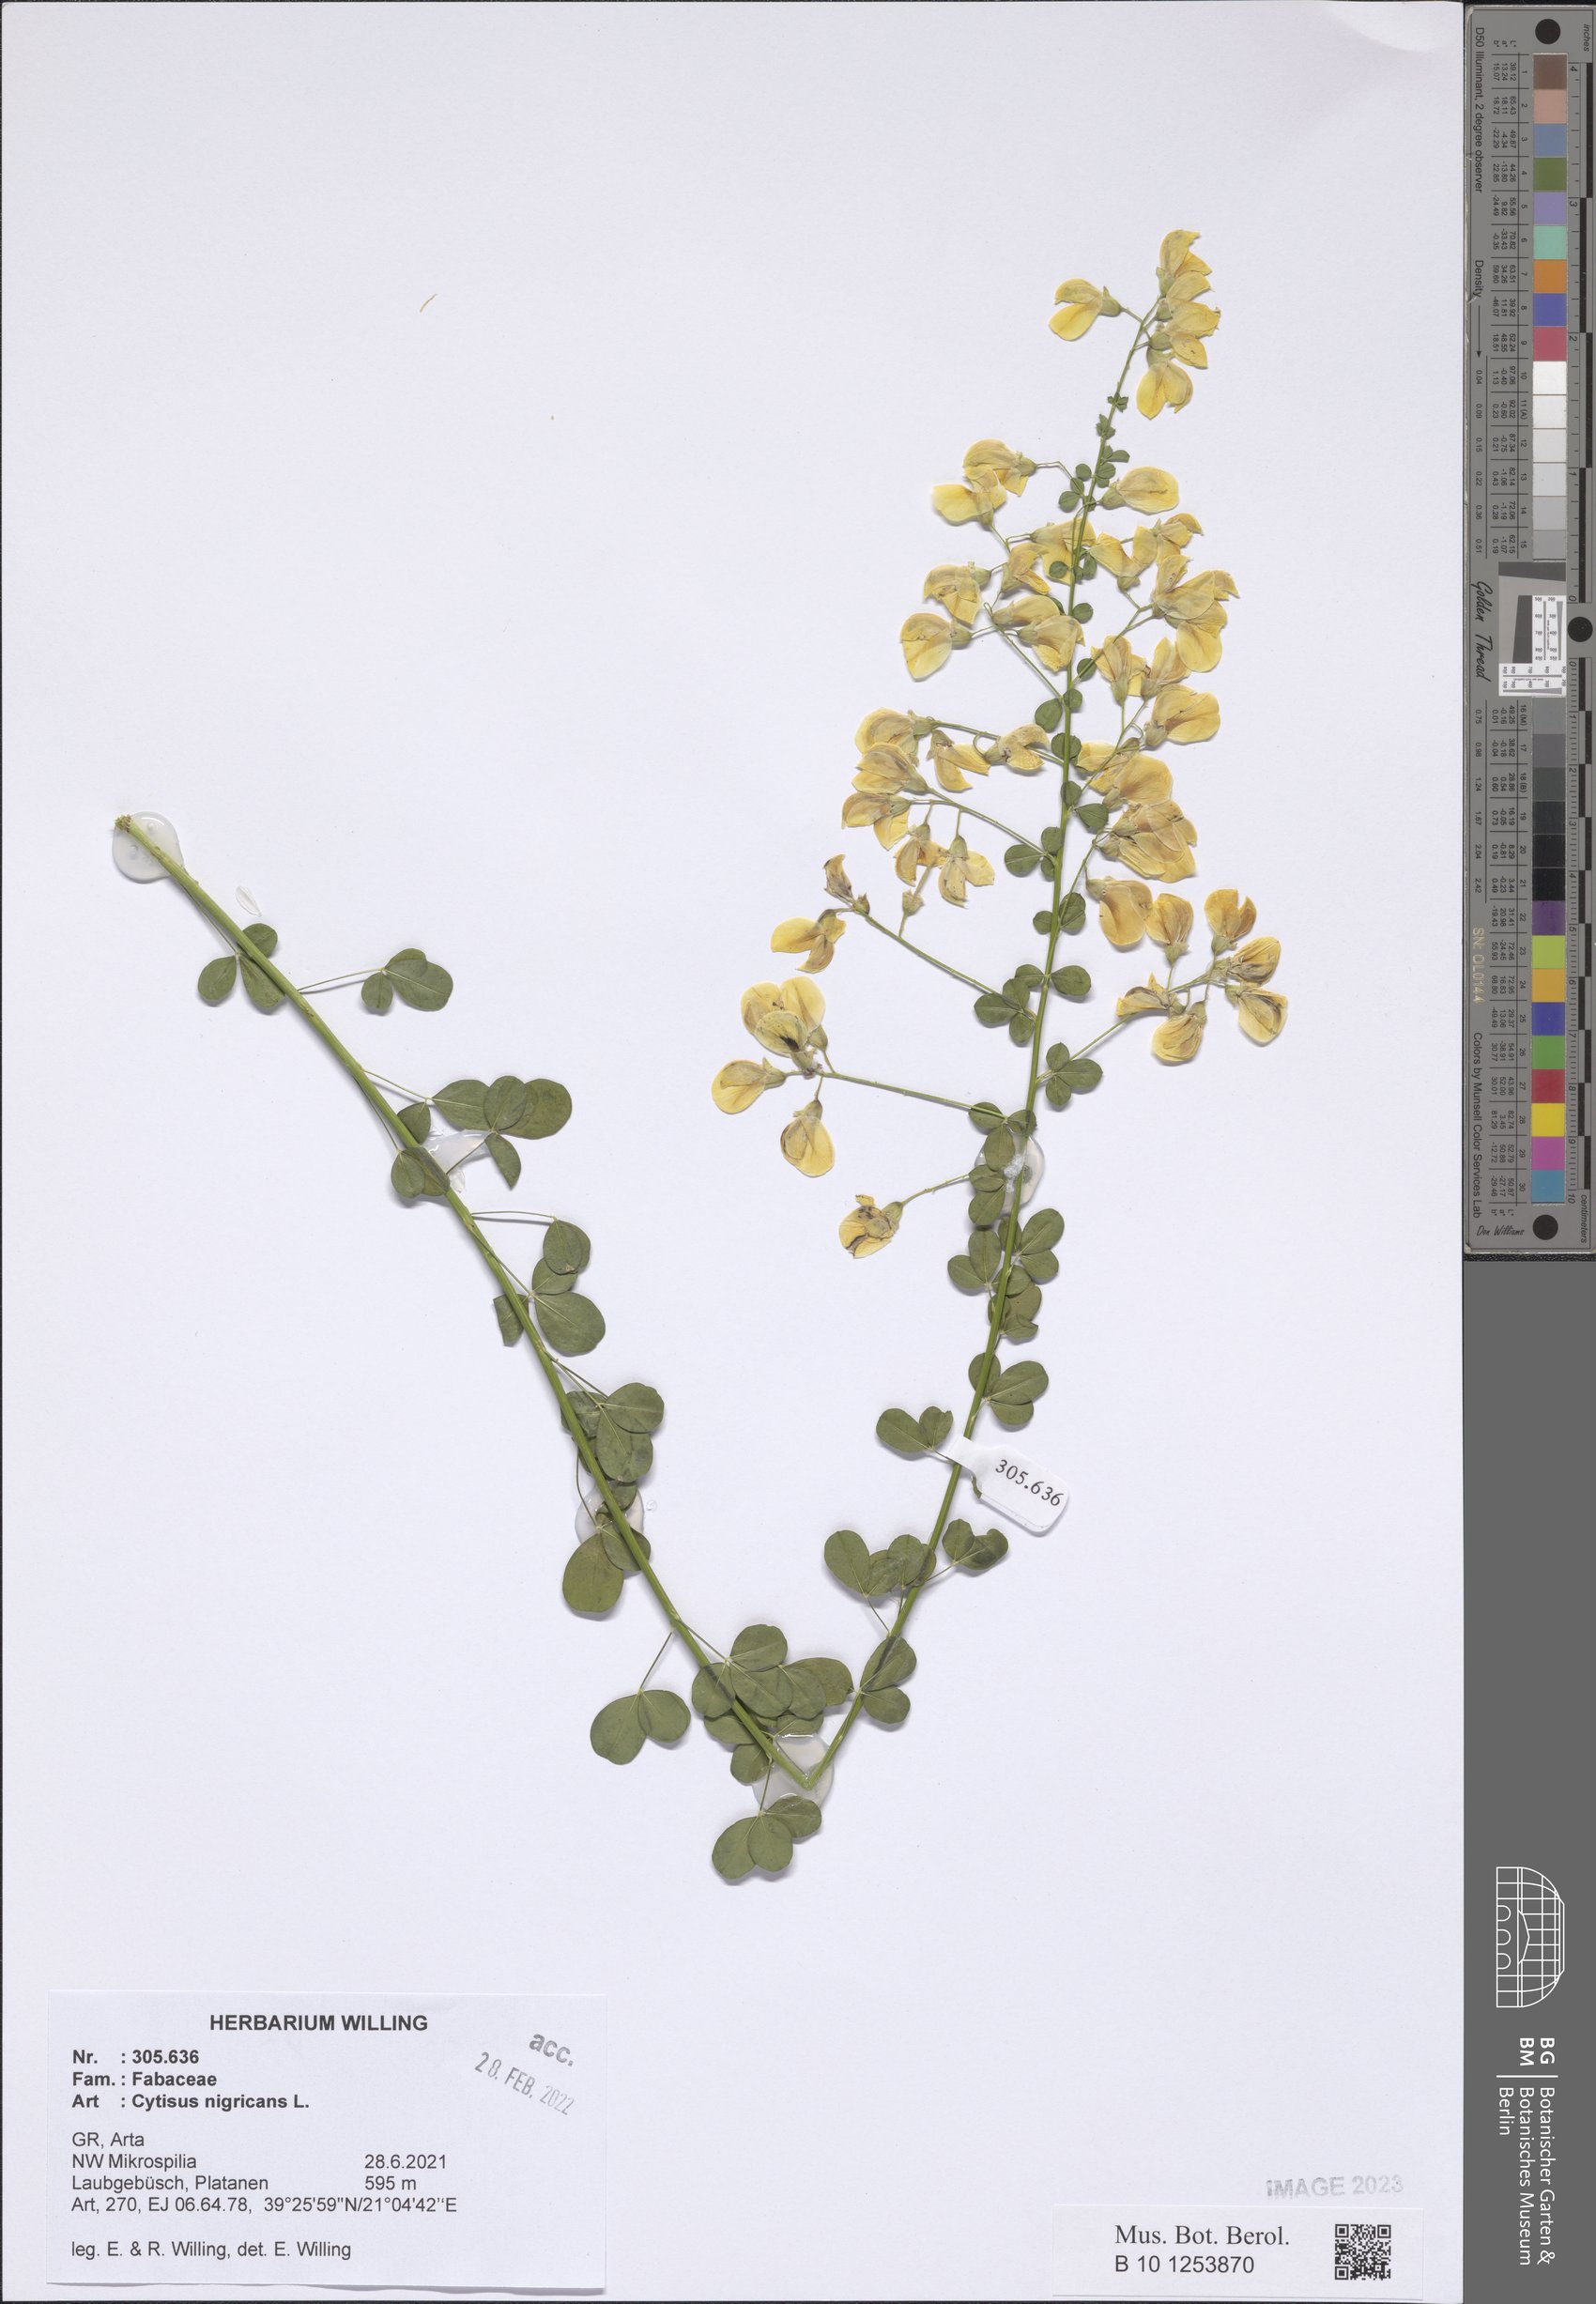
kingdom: Plantae
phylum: Tracheophyta
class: Magnoliopsida
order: Fabales
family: Fabaceae
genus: Cytisus
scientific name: Cytisus nigricans
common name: Black broom
